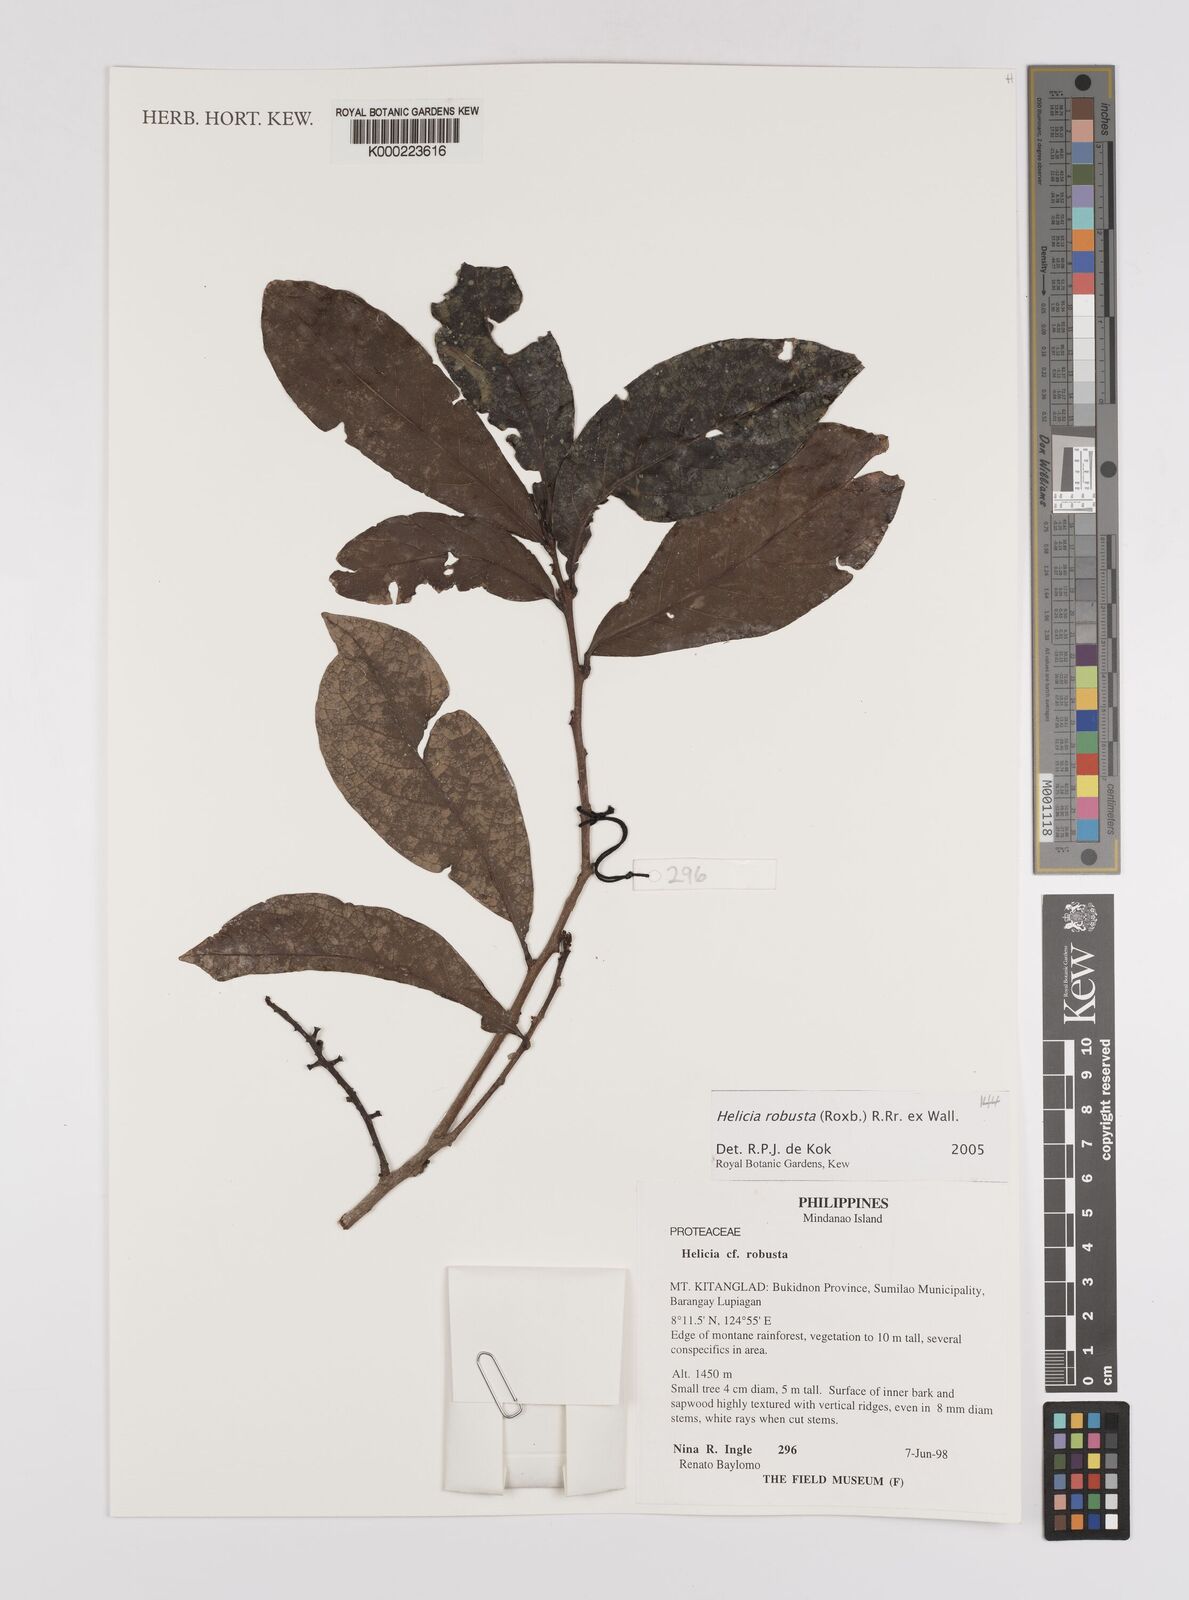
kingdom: Plantae
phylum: Tracheophyta
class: Magnoliopsida
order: Proteales
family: Proteaceae
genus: Helicia
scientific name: Helicia
